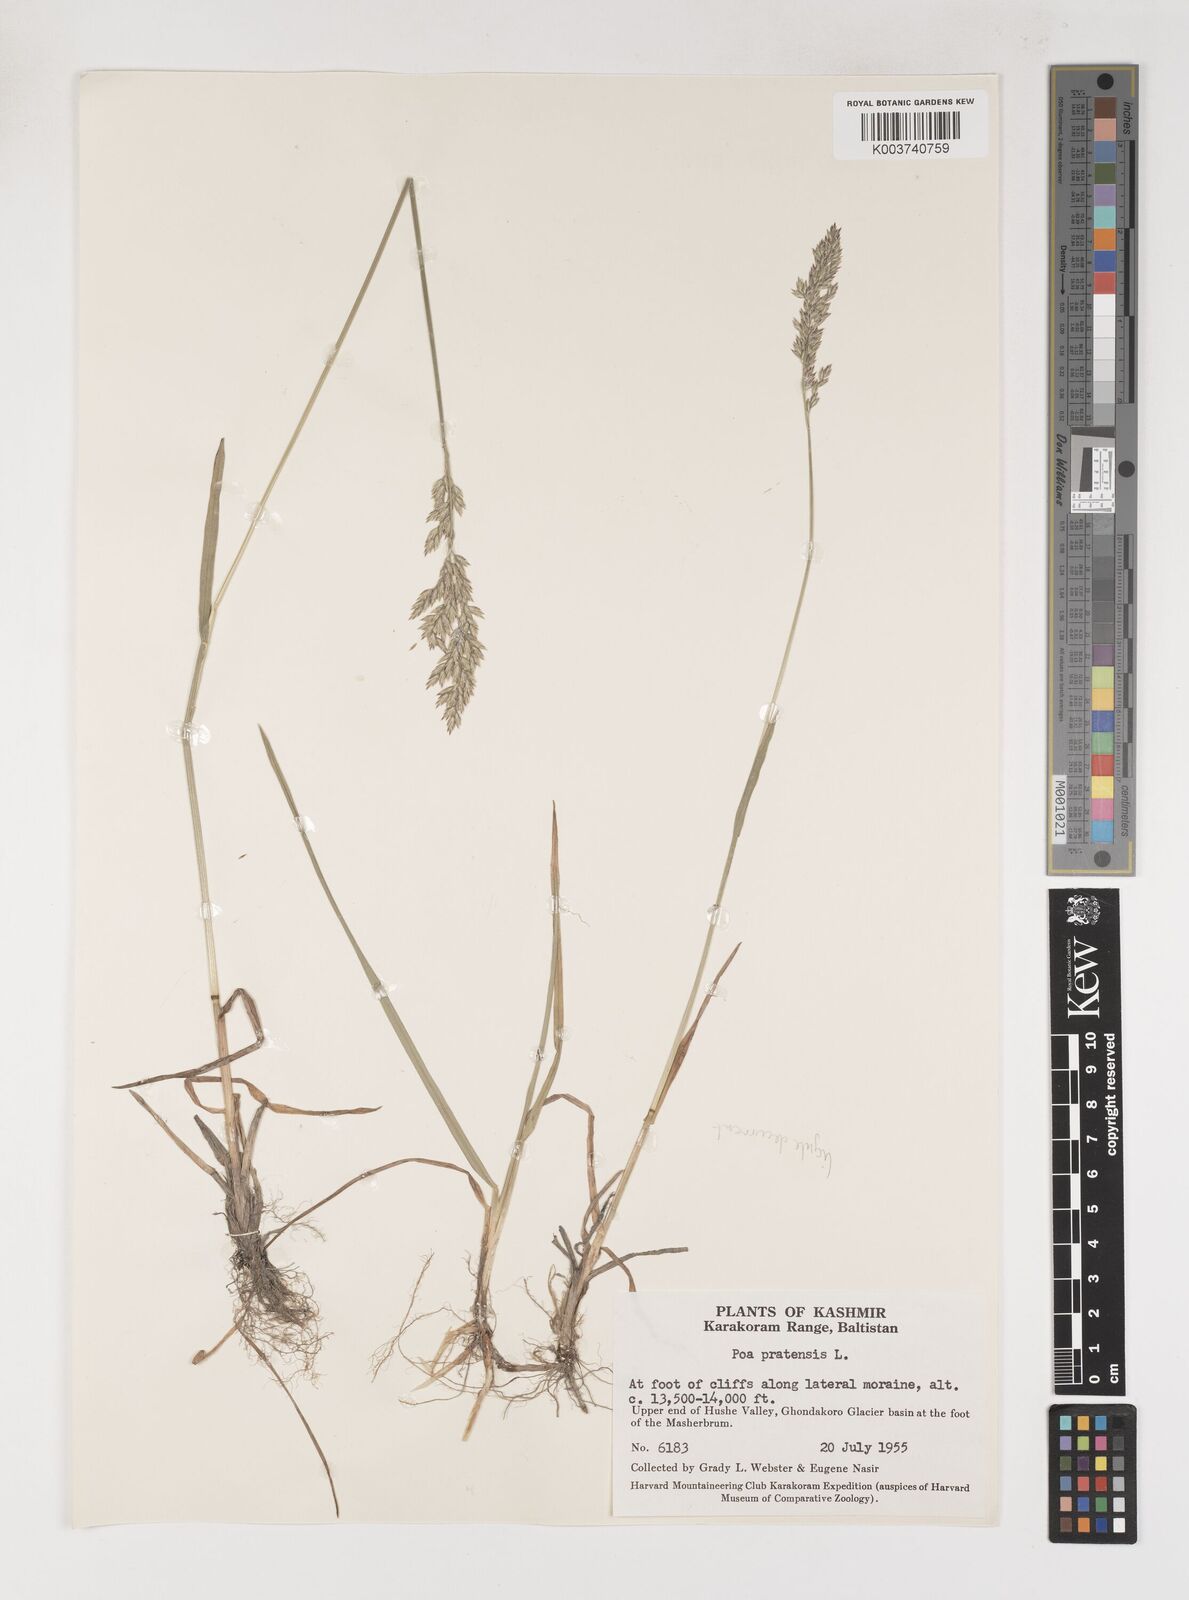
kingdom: Plantae
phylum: Tracheophyta
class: Liliopsida
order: Poales
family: Poaceae
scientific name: Poaceae
